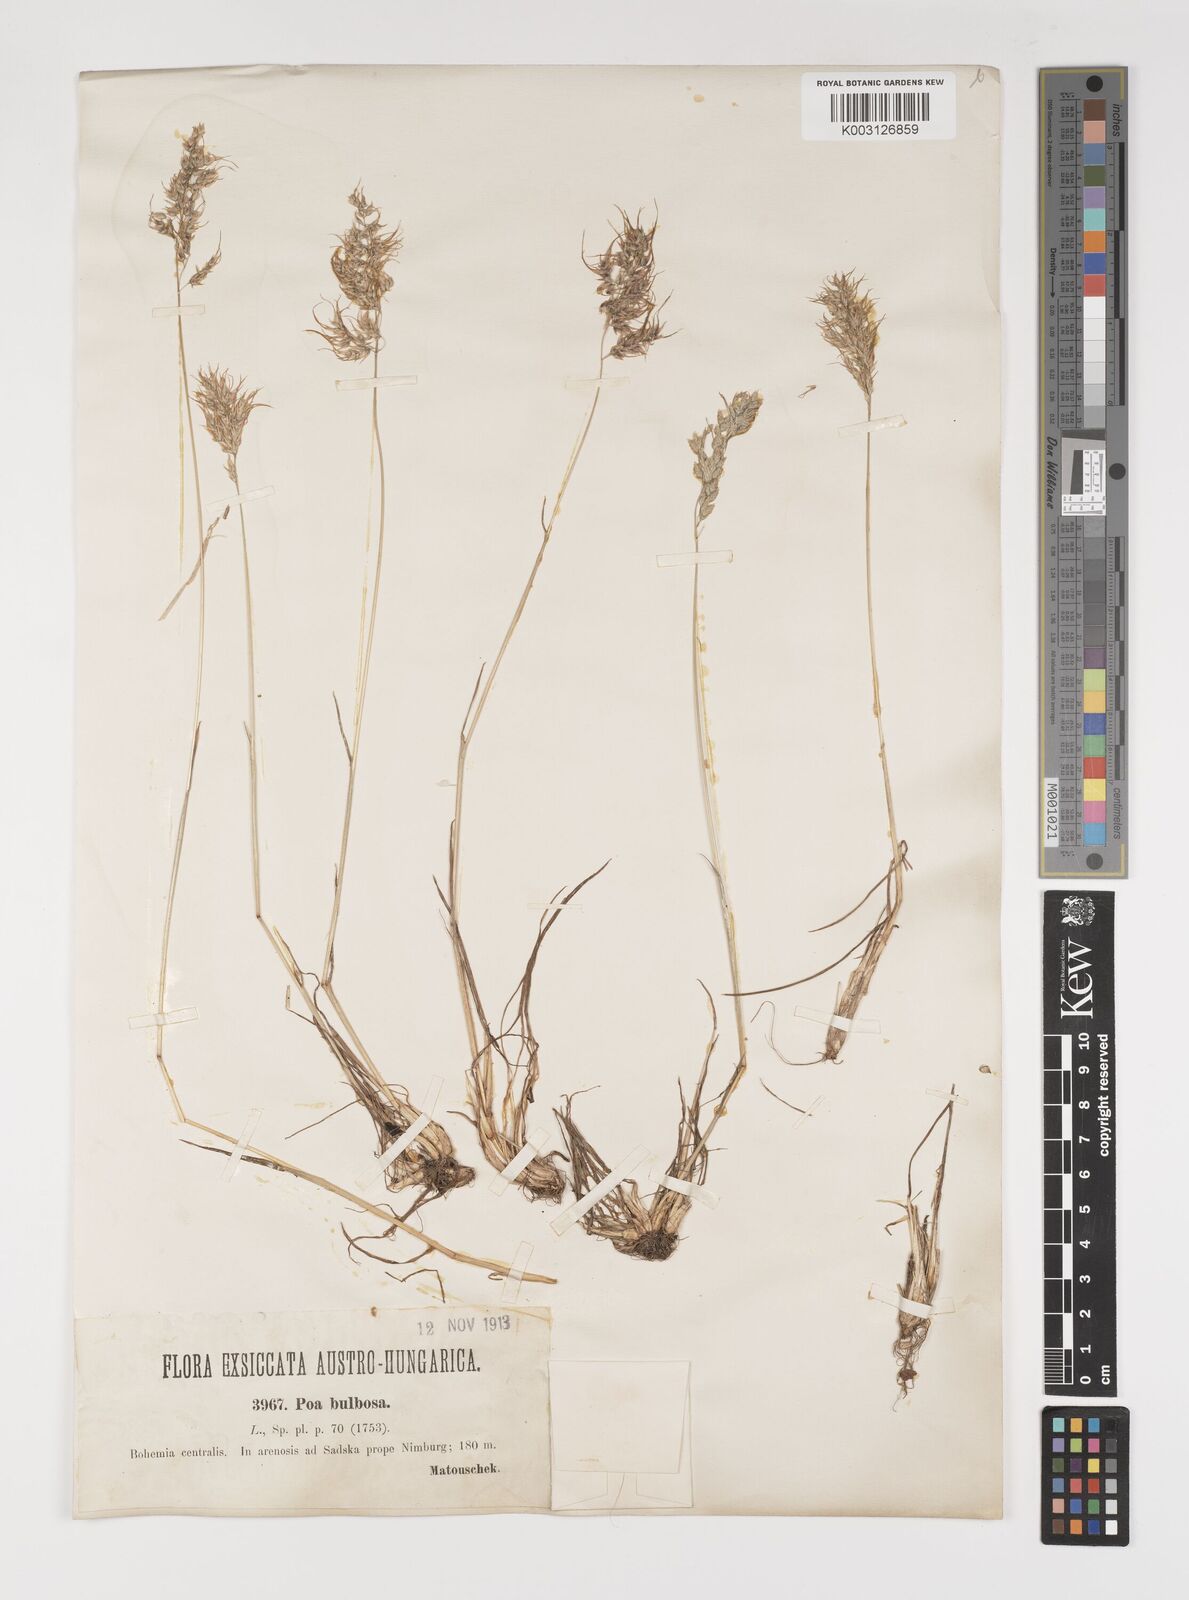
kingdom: Plantae
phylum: Tracheophyta
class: Liliopsida
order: Poales
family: Poaceae
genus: Poa
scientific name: Poa bulbosa
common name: Bulbous bluegrass
